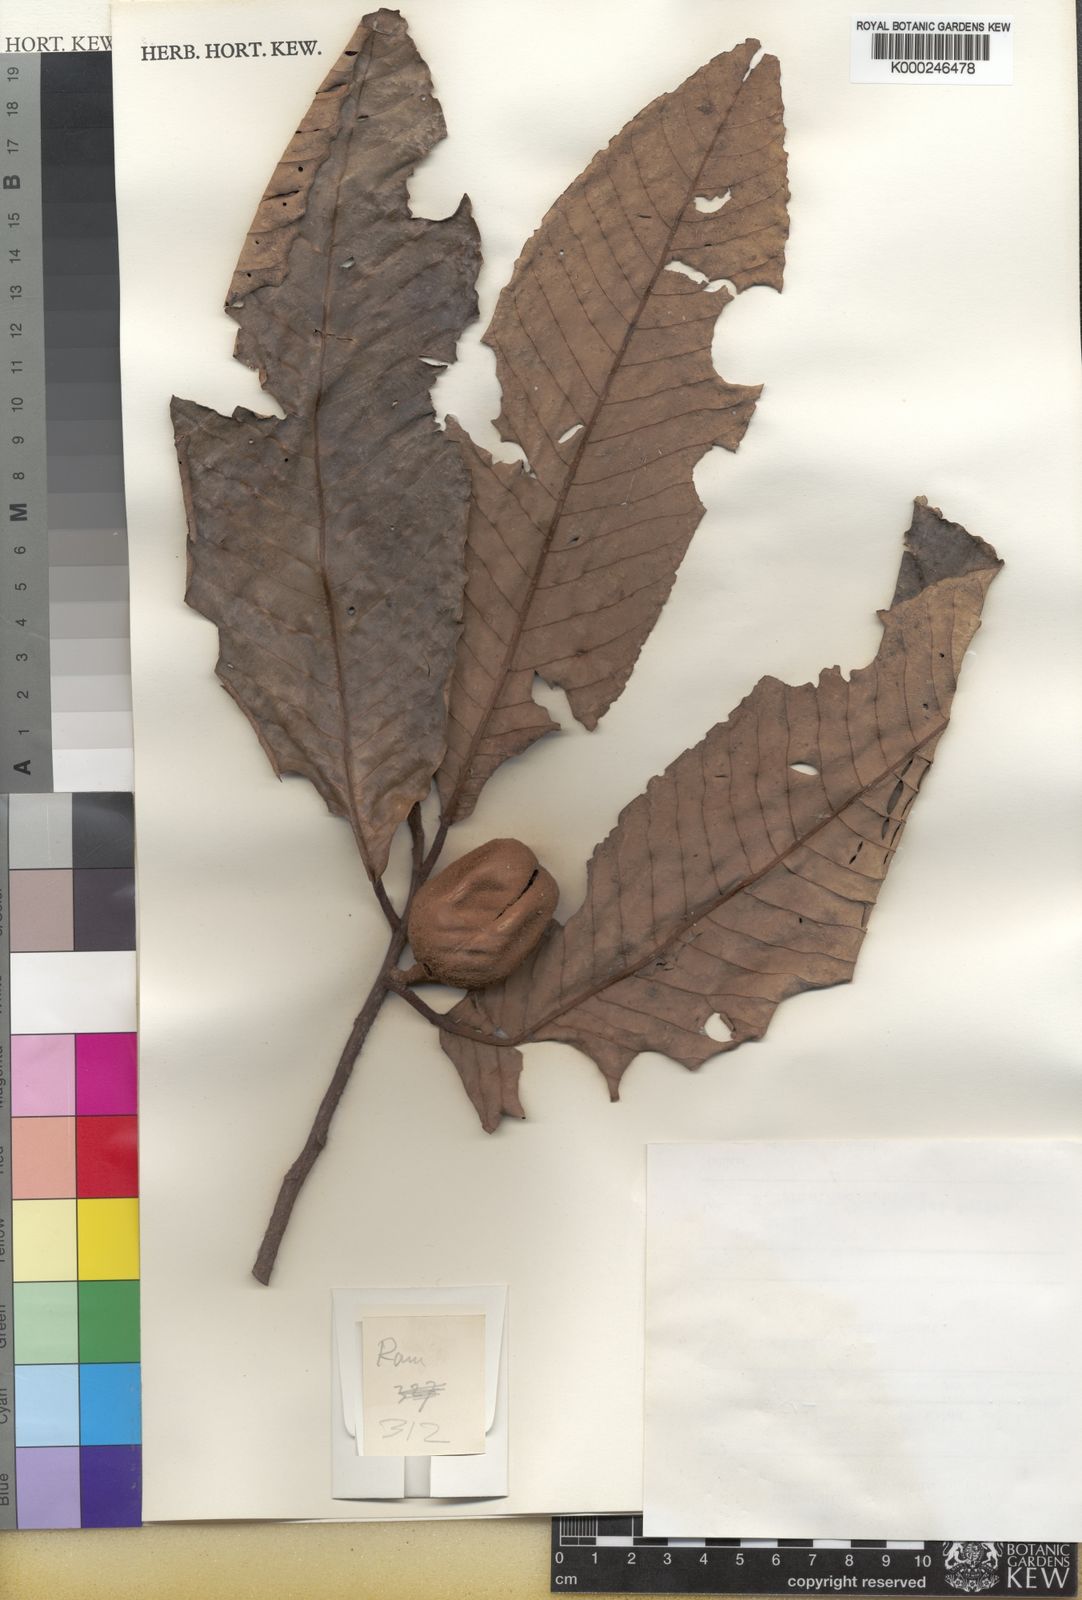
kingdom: Plantae
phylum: Tracheophyta
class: Magnoliopsida
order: Magnoliales
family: Myristicaceae
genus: Myristica
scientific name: Myristica fatua
